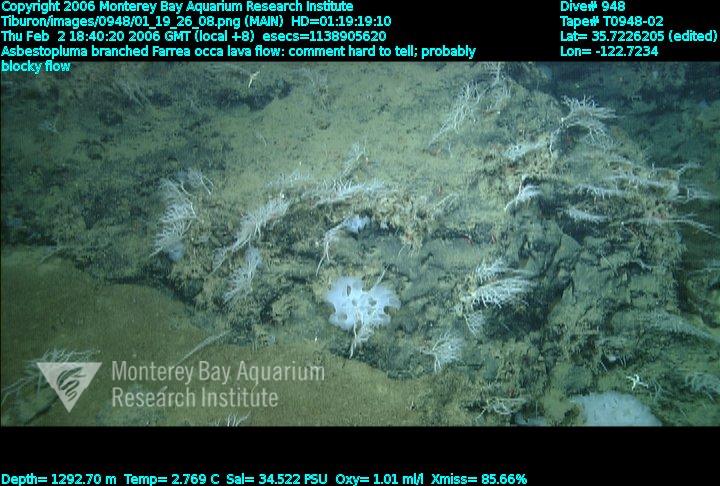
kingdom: Animalia
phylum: Porifera
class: Demospongiae
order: Poecilosclerida
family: Cladorhizidae
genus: Asbestopluma
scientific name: Asbestopluma monticola
